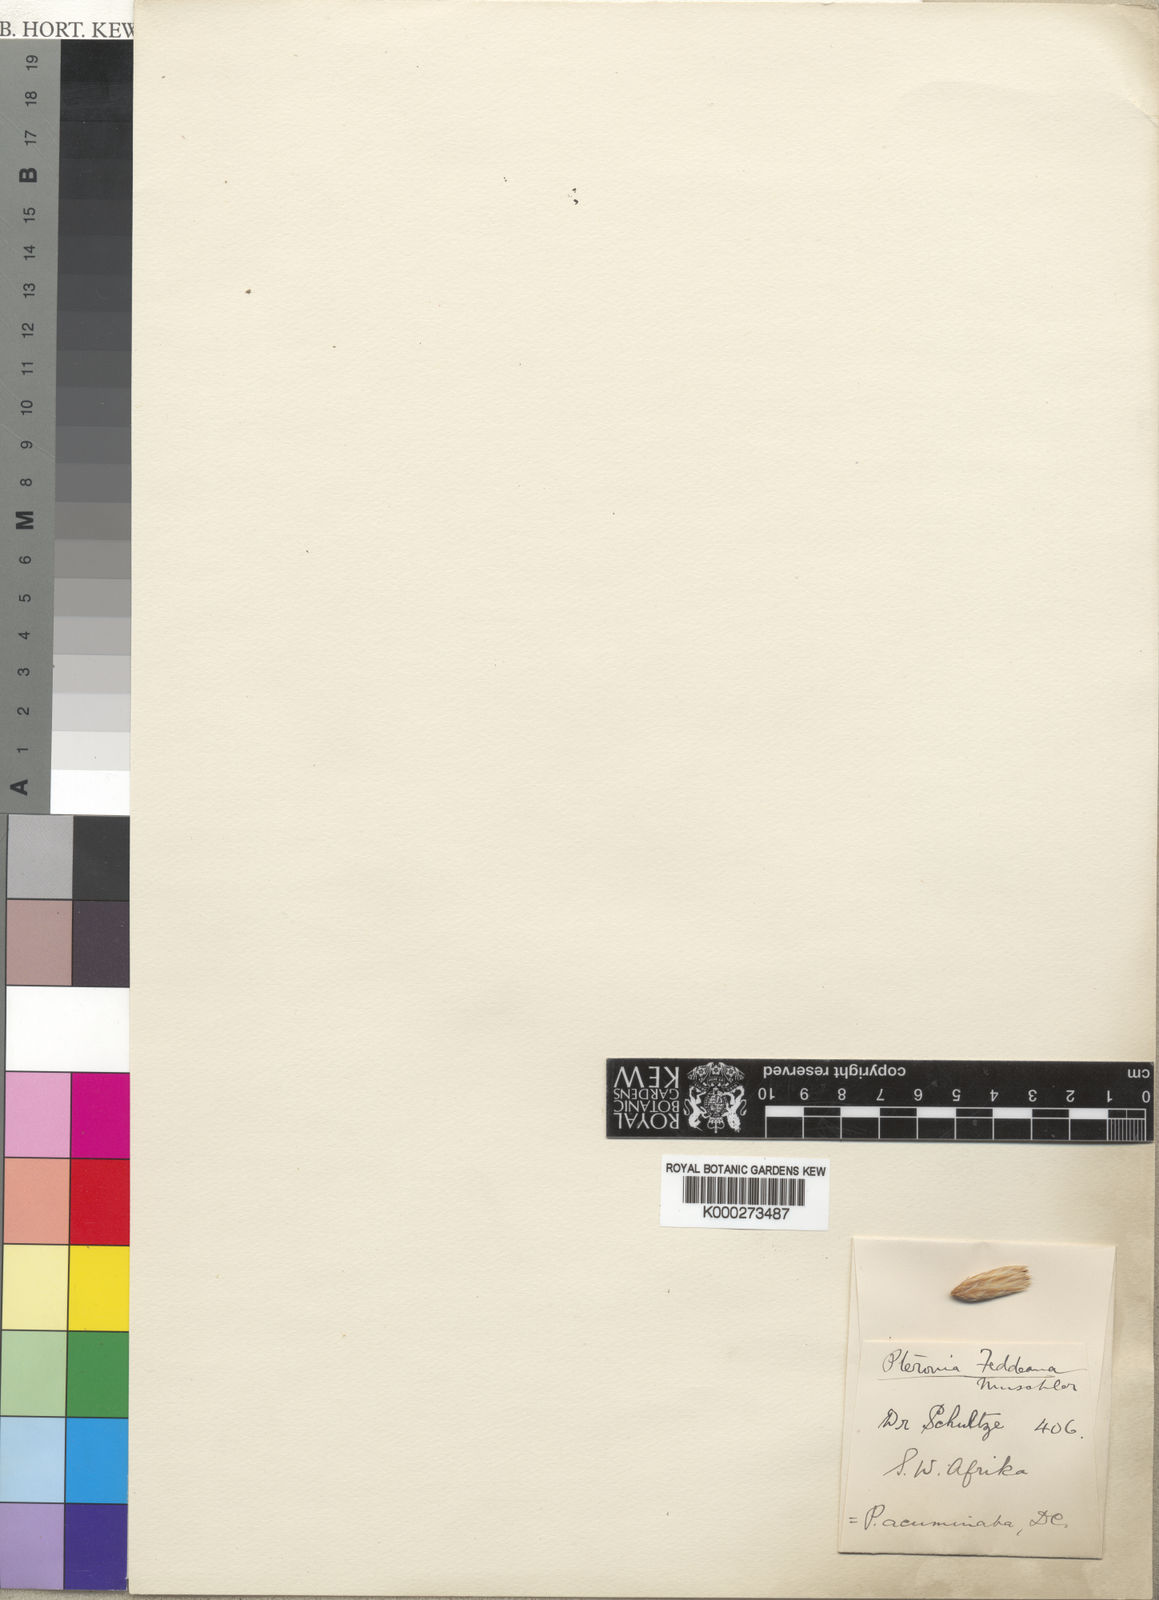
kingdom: Plantae
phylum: Tracheophyta
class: Magnoliopsida
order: Asterales
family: Asteraceae
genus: Pteronia
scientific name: Pteronia acuminata
